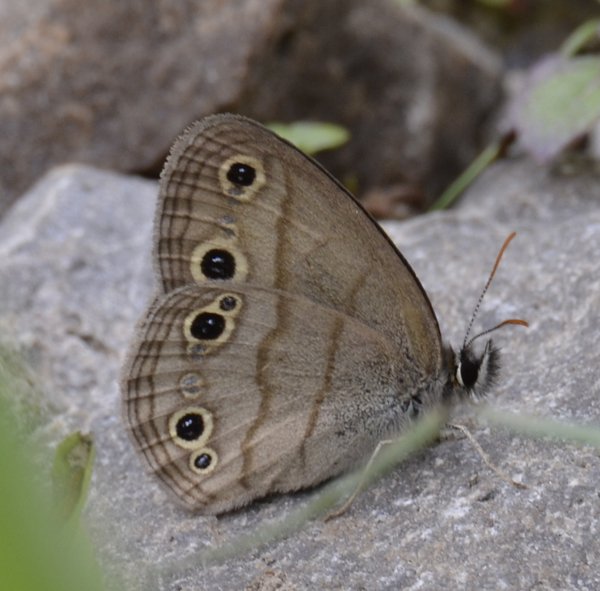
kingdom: Animalia
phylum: Arthropoda
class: Insecta
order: Lepidoptera
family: Nymphalidae
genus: Euptychia
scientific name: Euptychia cymela
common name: Little Wood Satyr
